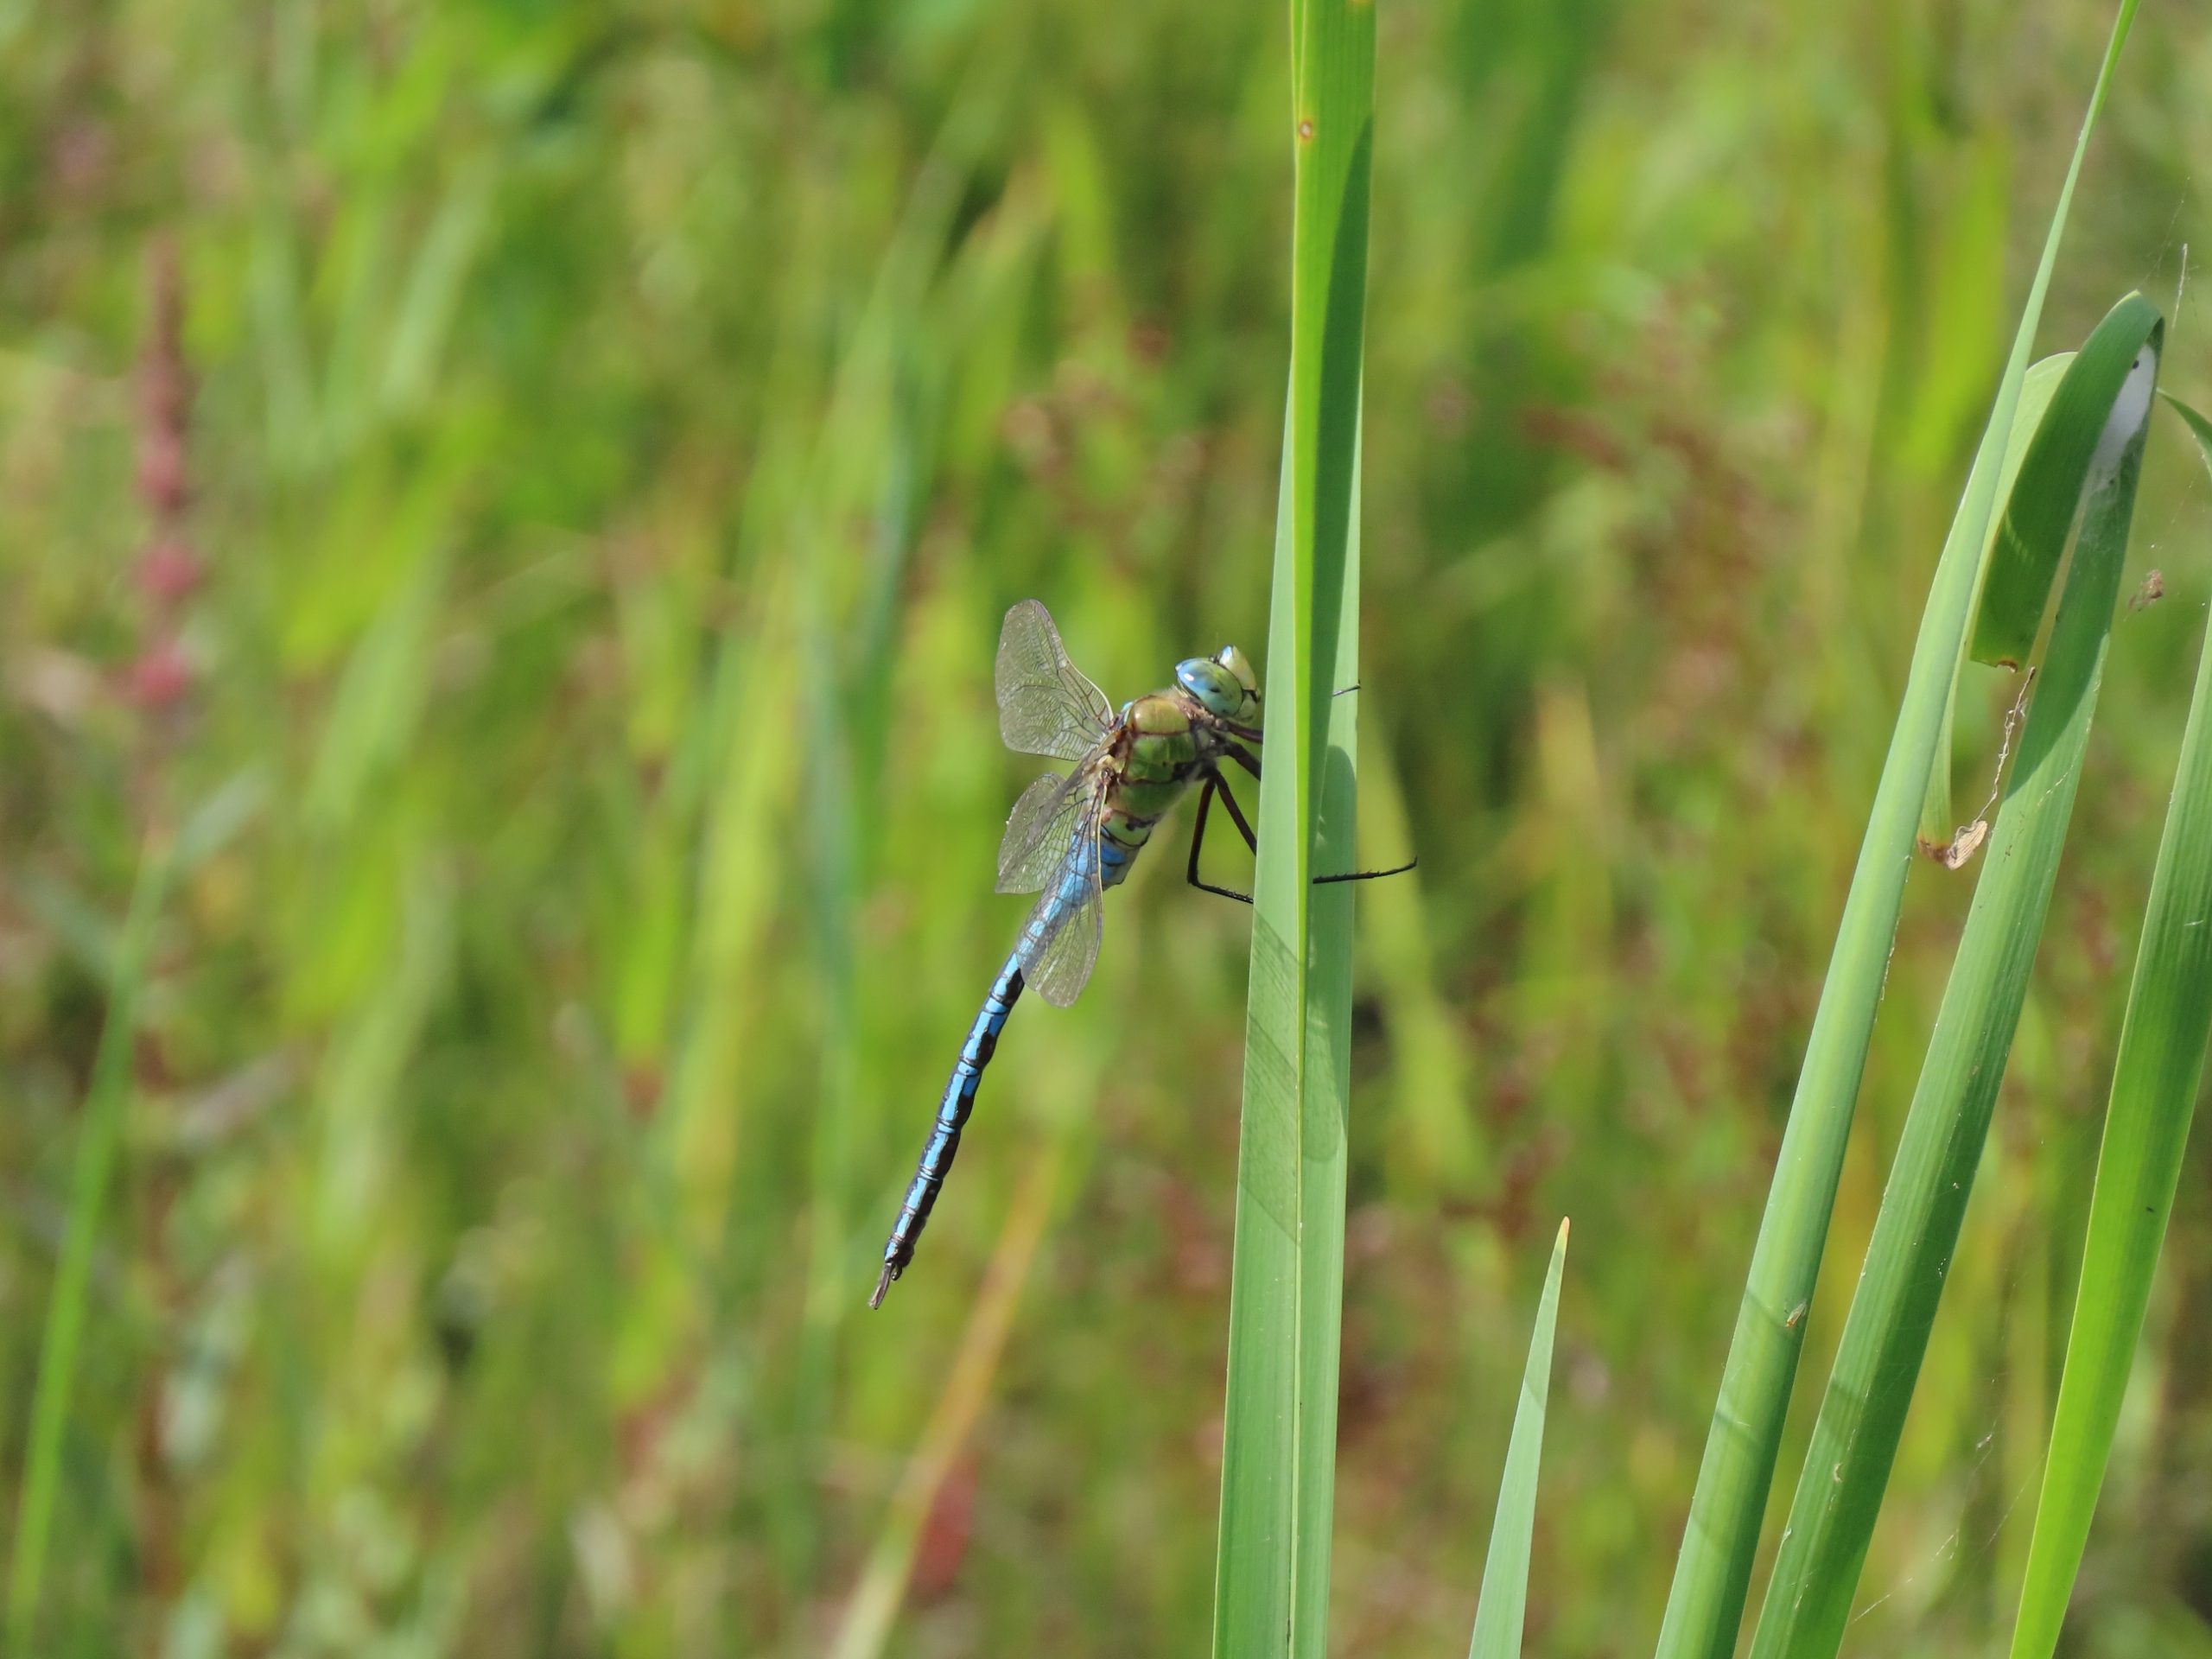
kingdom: Animalia
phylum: Arthropoda
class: Insecta
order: Odonata
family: Aeshnidae
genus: Anax
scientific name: Anax imperator
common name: Stor kejserguldsmed
